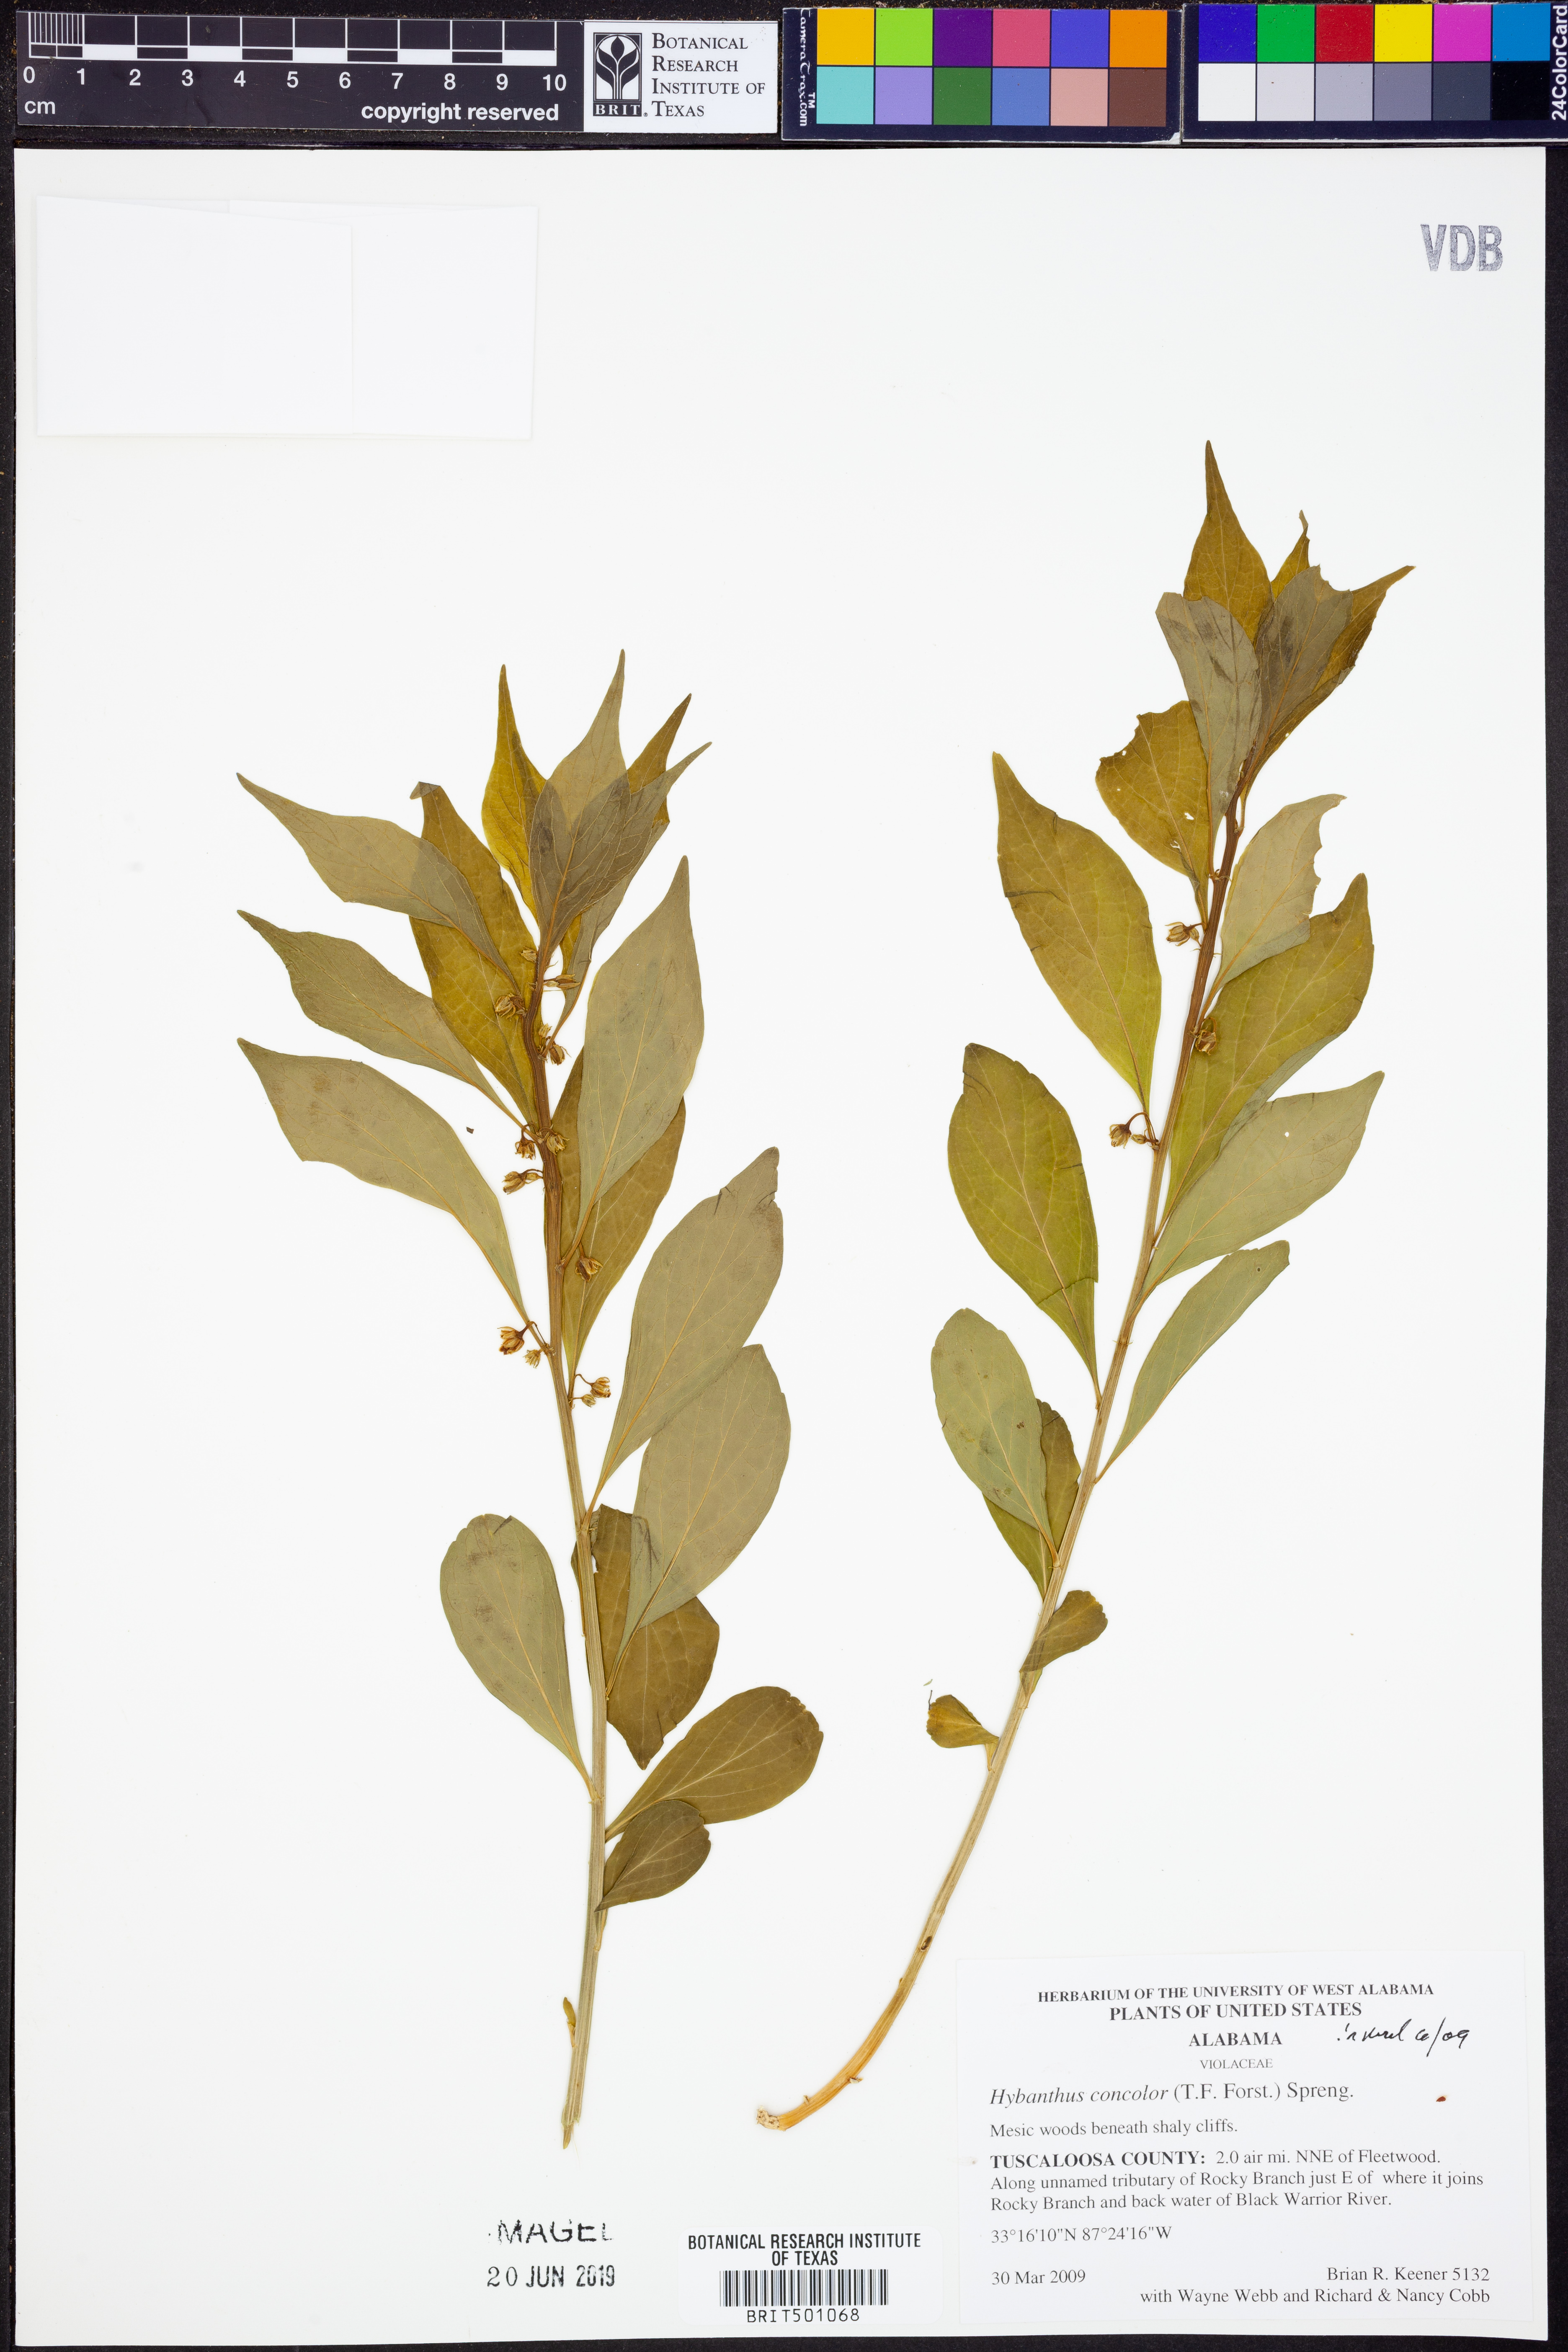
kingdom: Plantae
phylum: Tracheophyta
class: Magnoliopsida
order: Malpighiales
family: Violaceae
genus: Cubelium
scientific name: Cubelium concolor
